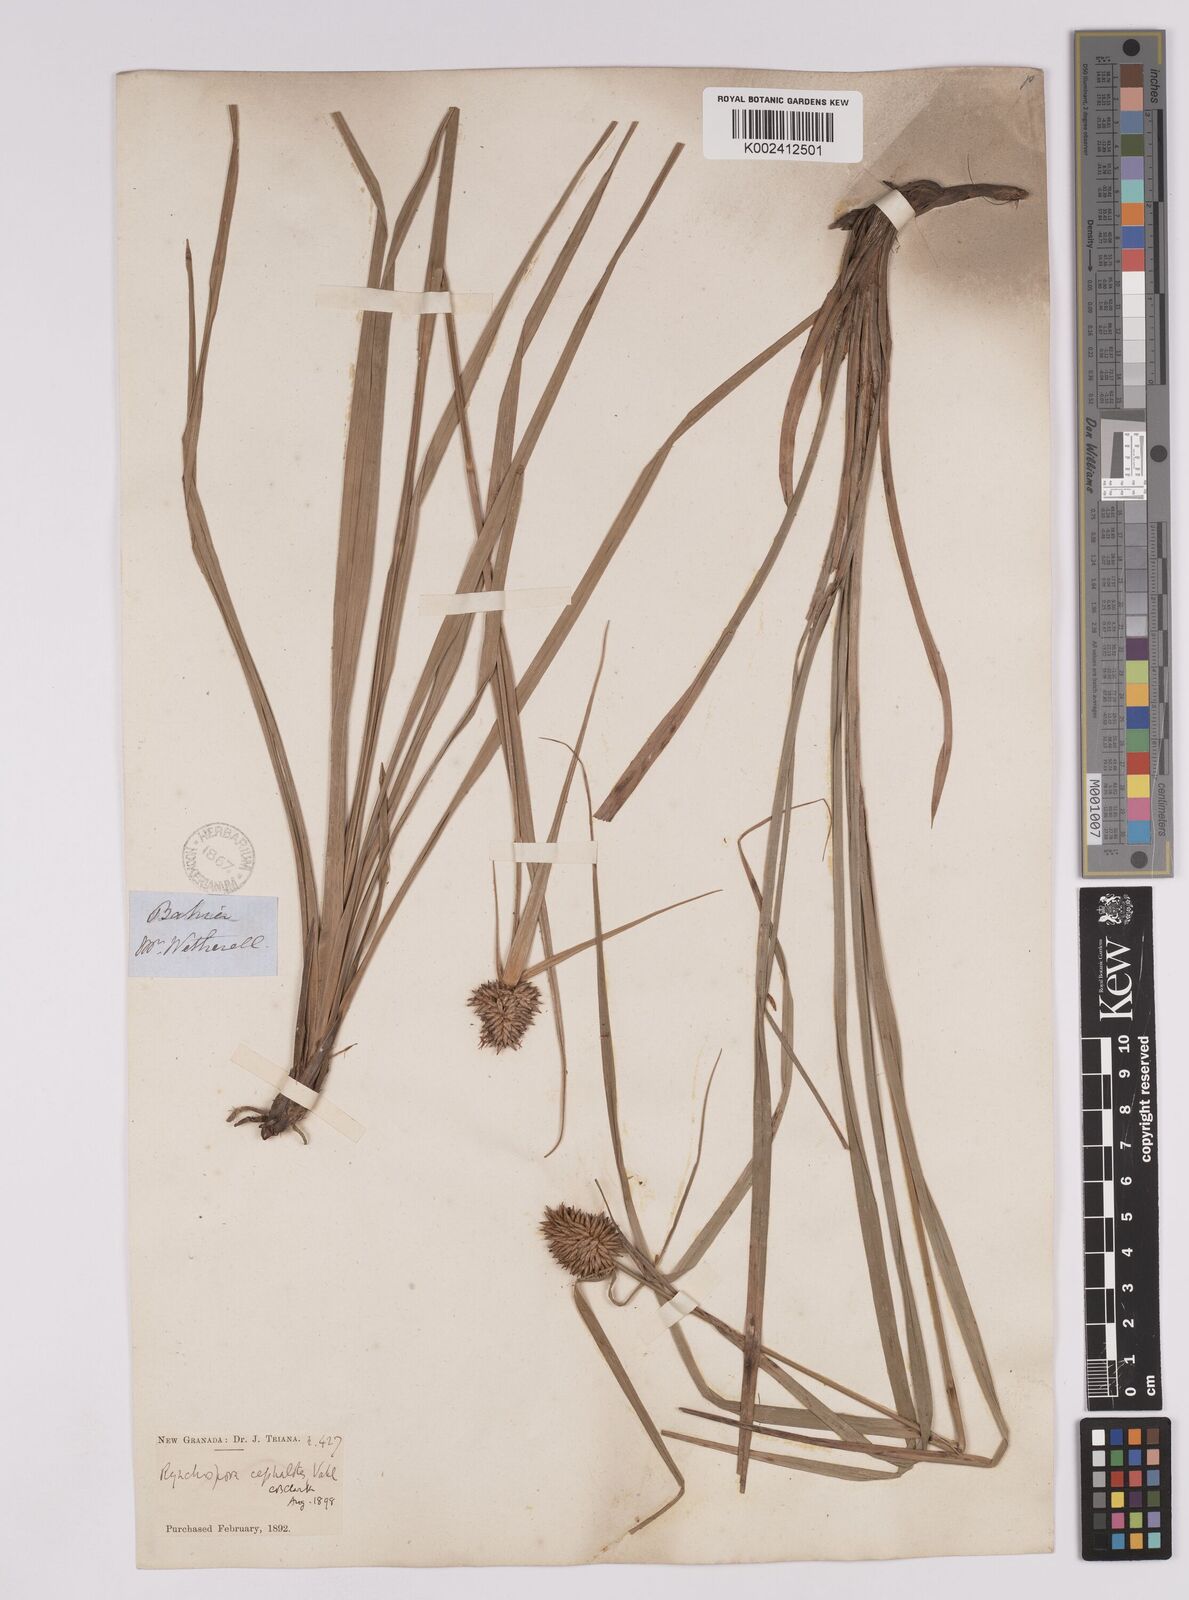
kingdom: Plantae
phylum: Tracheophyta
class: Liliopsida
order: Poales
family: Cyperaceae
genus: Rhynchospora
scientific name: Rhynchospora cephalotes
